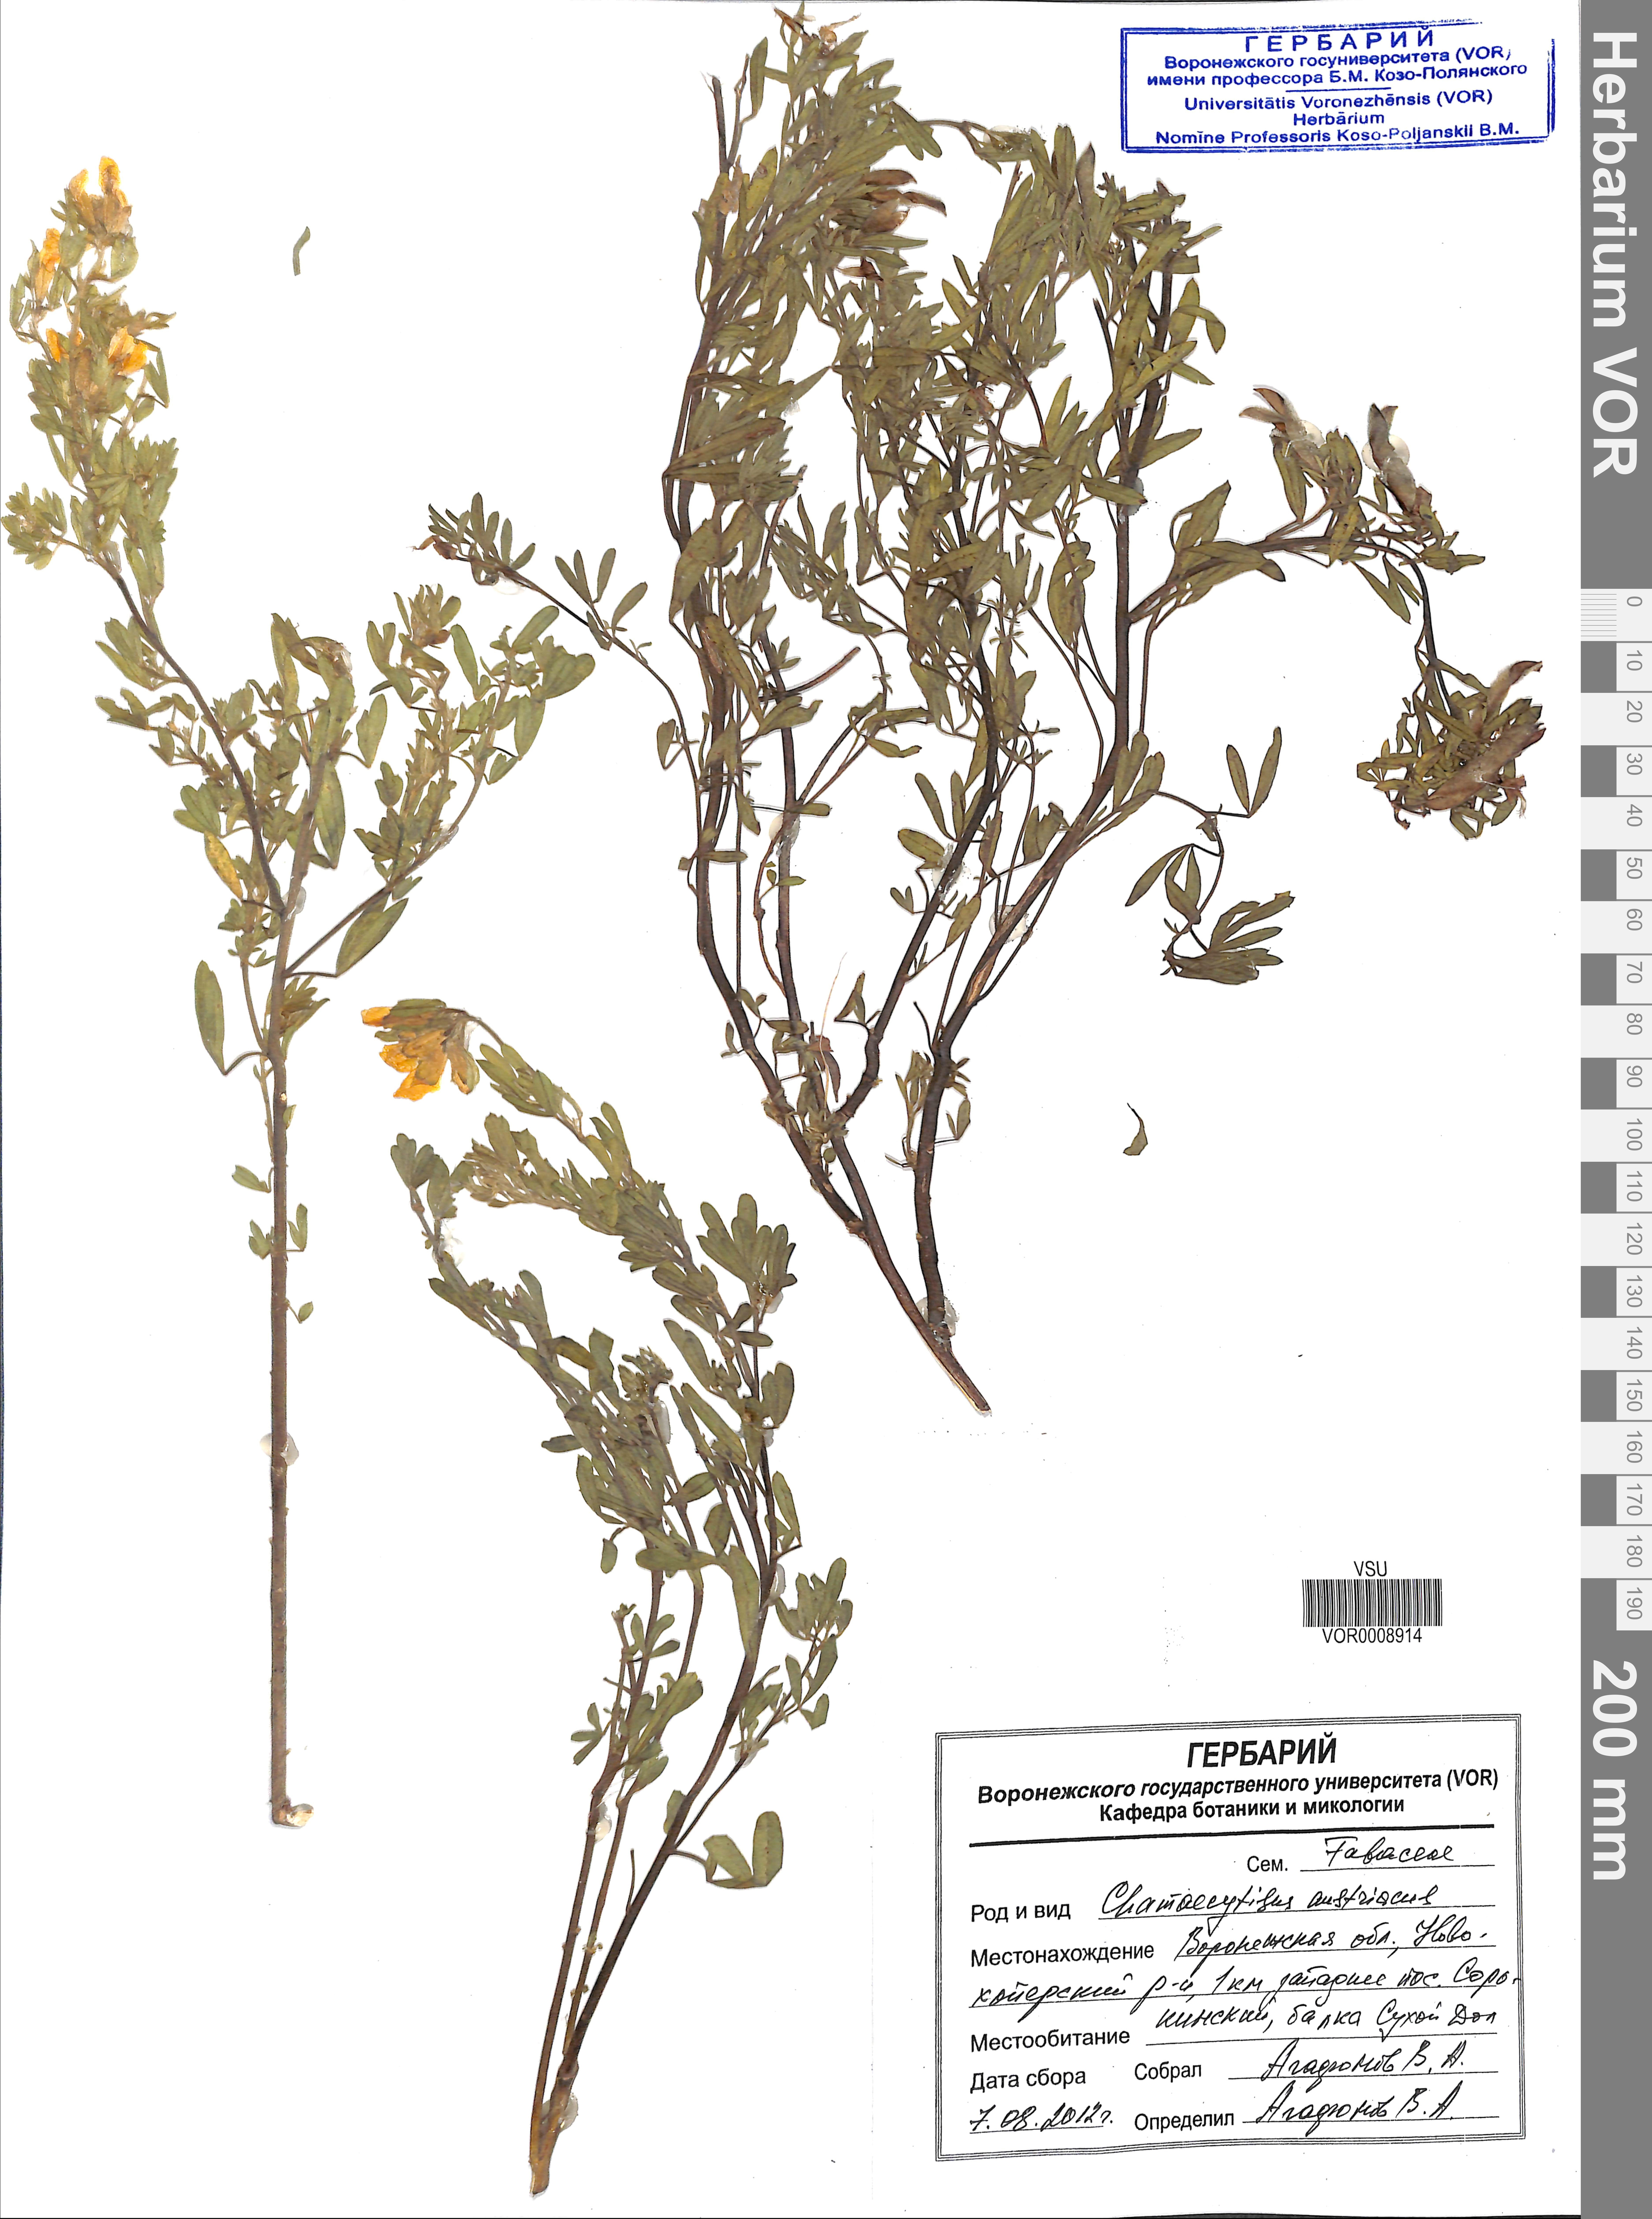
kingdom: Plantae
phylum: Tracheophyta
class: Magnoliopsida
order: Fabales
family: Fabaceae
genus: Chamaecytisus
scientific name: Chamaecytisus austriacus
